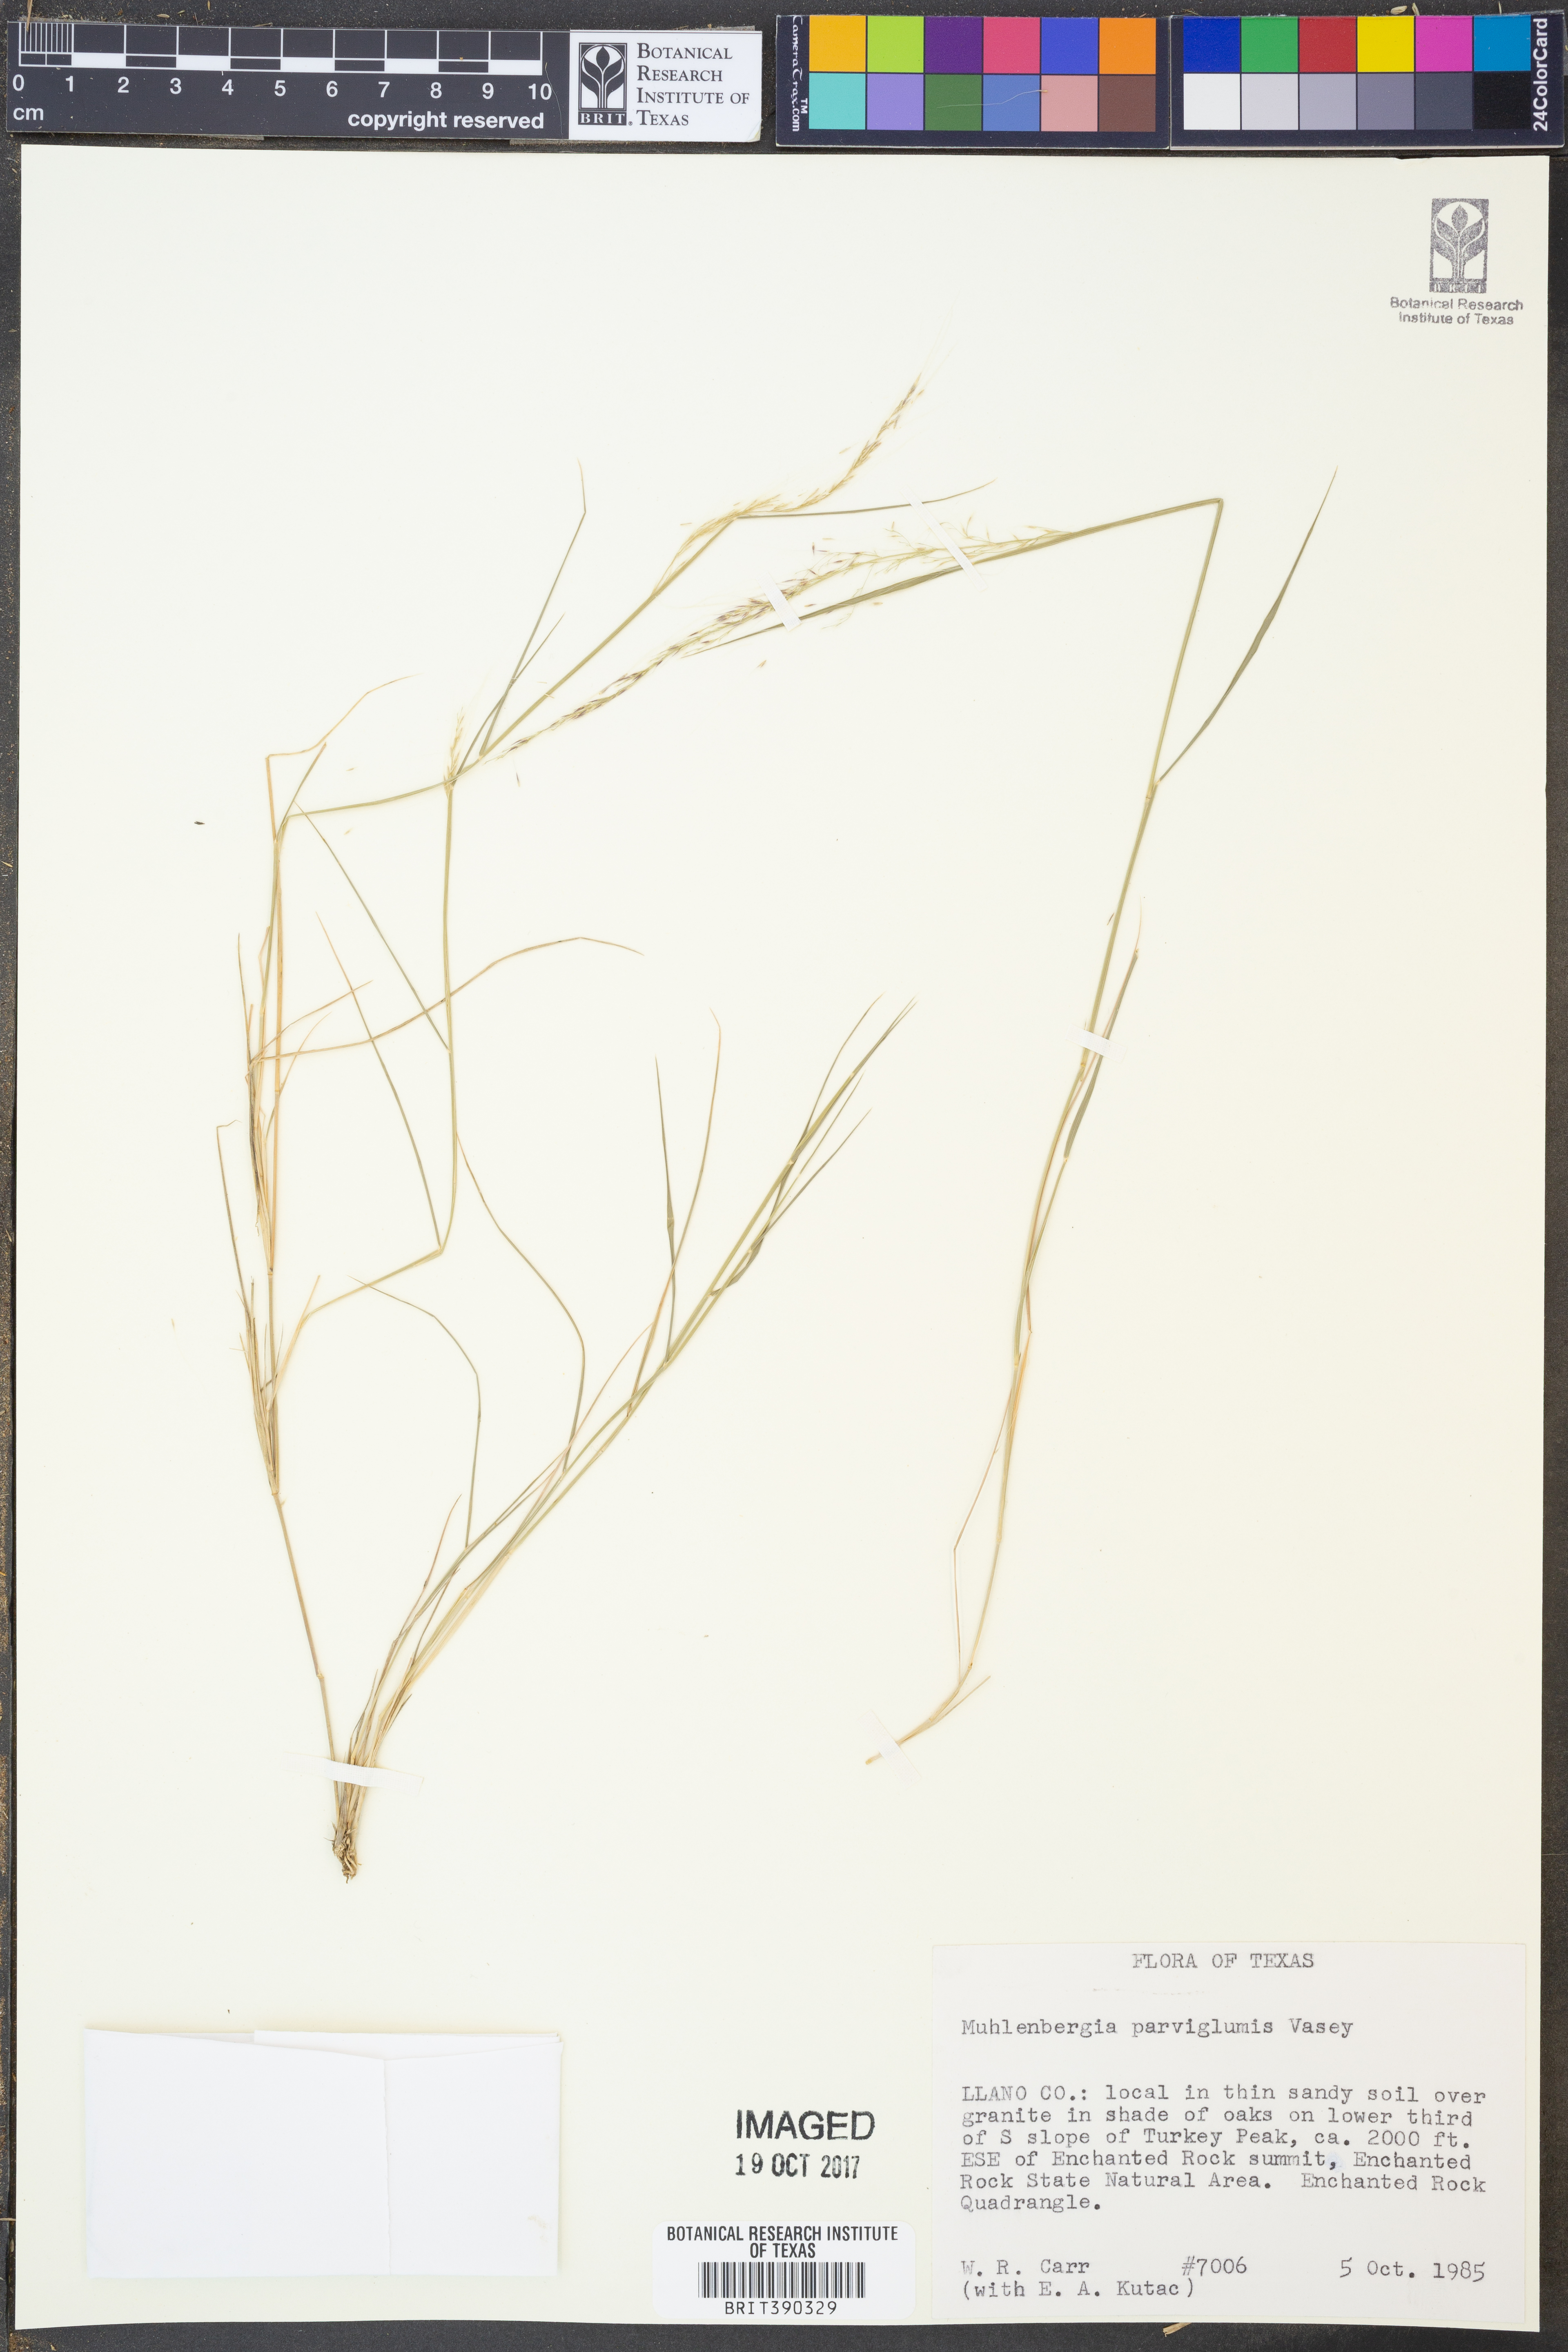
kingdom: Plantae
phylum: Tracheophyta
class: Liliopsida
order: Poales
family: Poaceae
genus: Muhlenbergia
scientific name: Muhlenbergia spiciformis
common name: Longawn muhly
